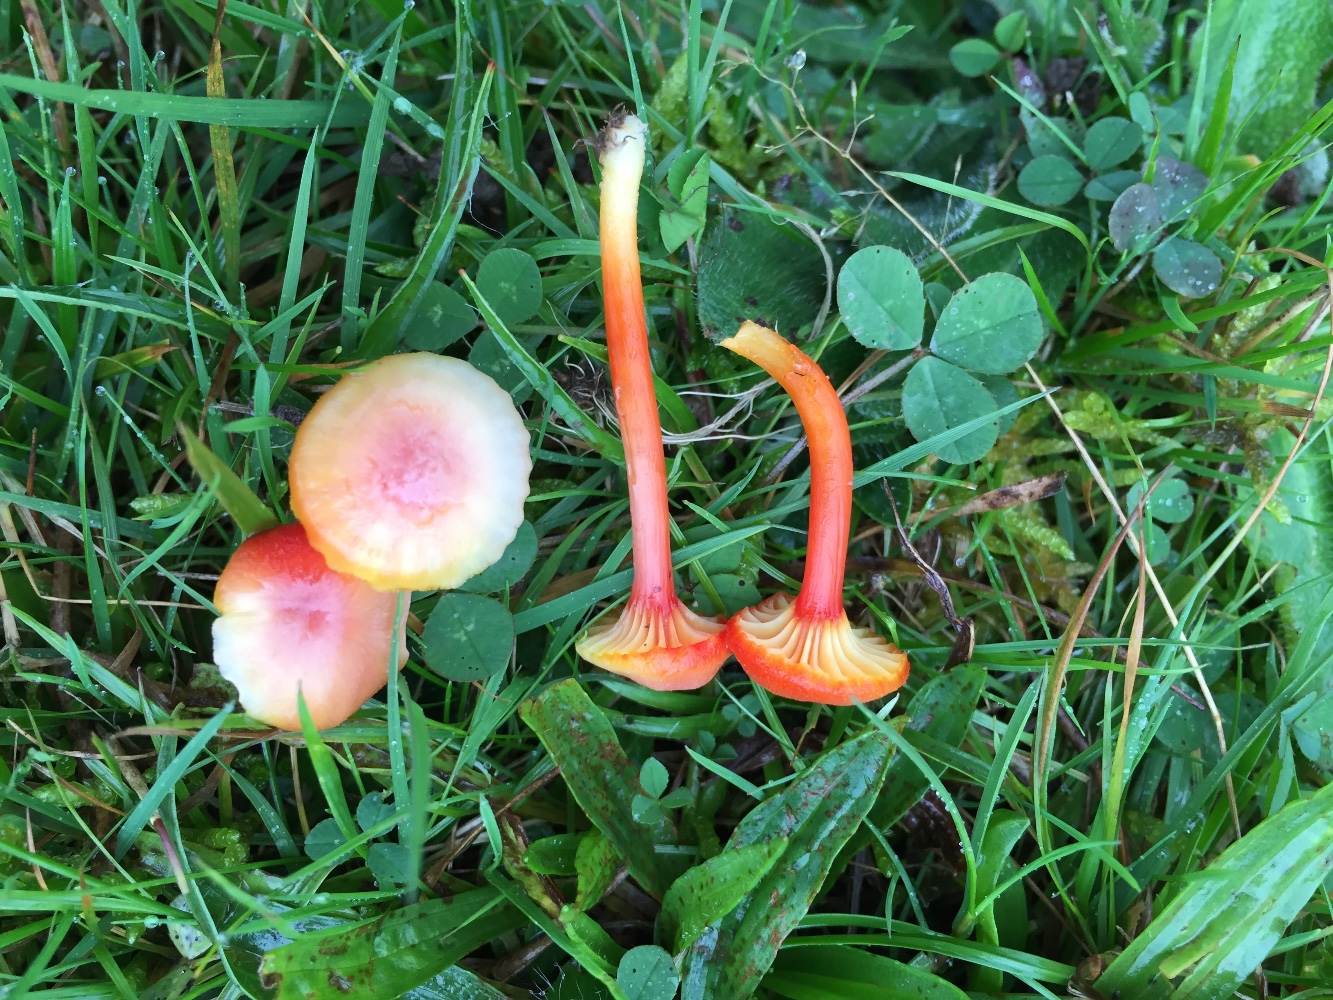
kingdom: Fungi
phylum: Basidiomycota
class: Agaricomycetes
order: Agaricales
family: Hygrophoraceae
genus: Hygrocybe
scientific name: Hygrocybe cantharellus
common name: kantarel-vokshat
